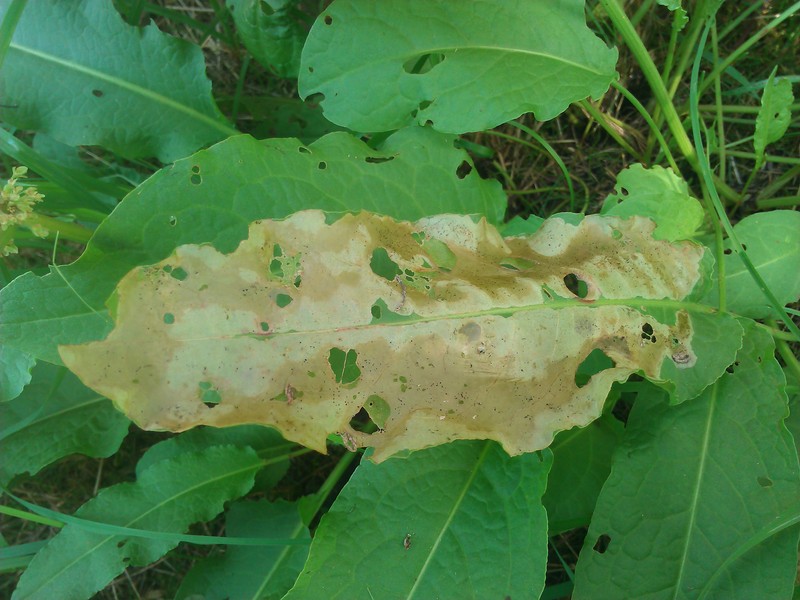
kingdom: Animalia
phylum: Arthropoda
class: Insecta
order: Diptera
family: Anthomyiidae
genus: Pegomya
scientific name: Pegomya
